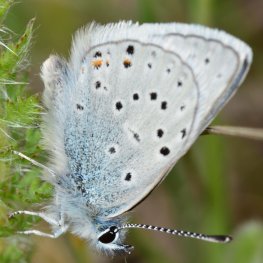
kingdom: Animalia
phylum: Arthropoda
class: Insecta
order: Lepidoptera
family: Lycaenidae
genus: Plebejus
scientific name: Plebejus saepiolus
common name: Greenish Blue
